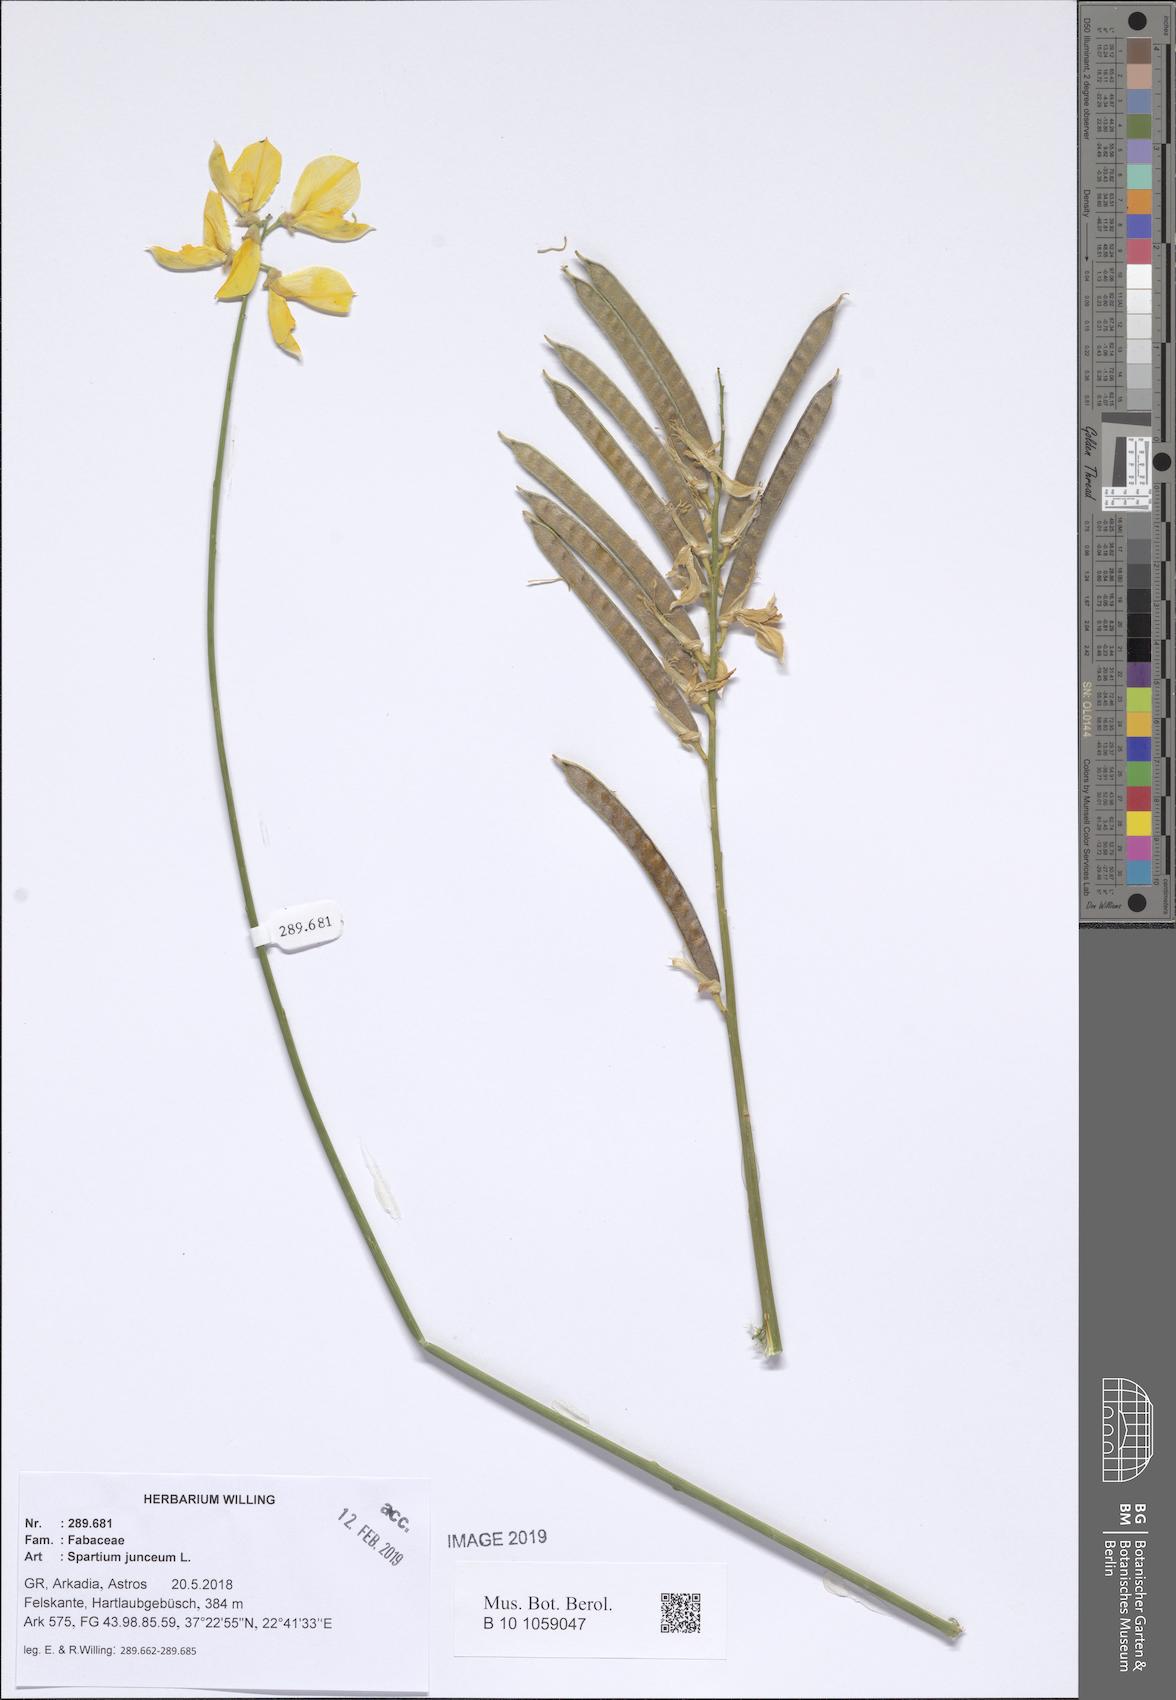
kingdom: Plantae
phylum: Tracheophyta
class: Magnoliopsida
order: Fabales
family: Fabaceae
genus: Spartium
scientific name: Spartium junceum
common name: Spanish broom
